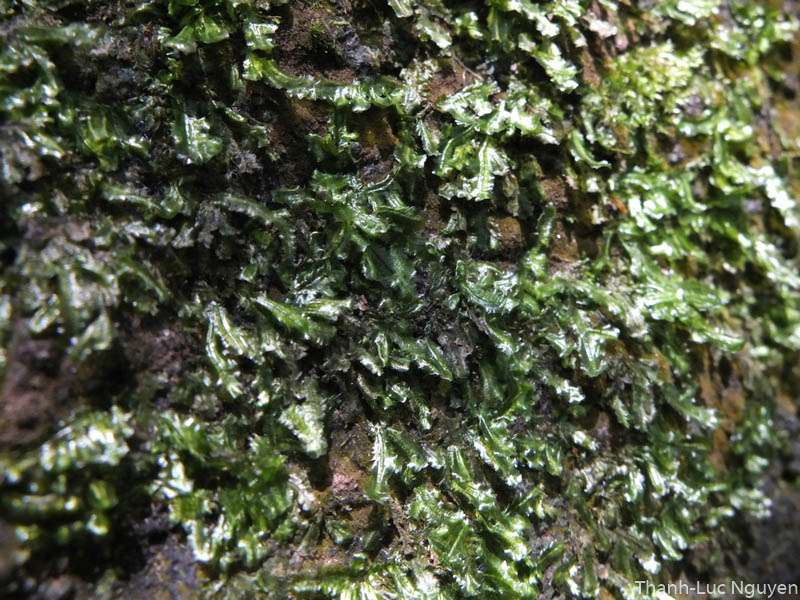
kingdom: Plantae
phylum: Bryophyta
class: Bryopsida
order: Hypnales
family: Neckeraceae
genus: Isodrepanium
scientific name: Isodrepanium arcuatum
